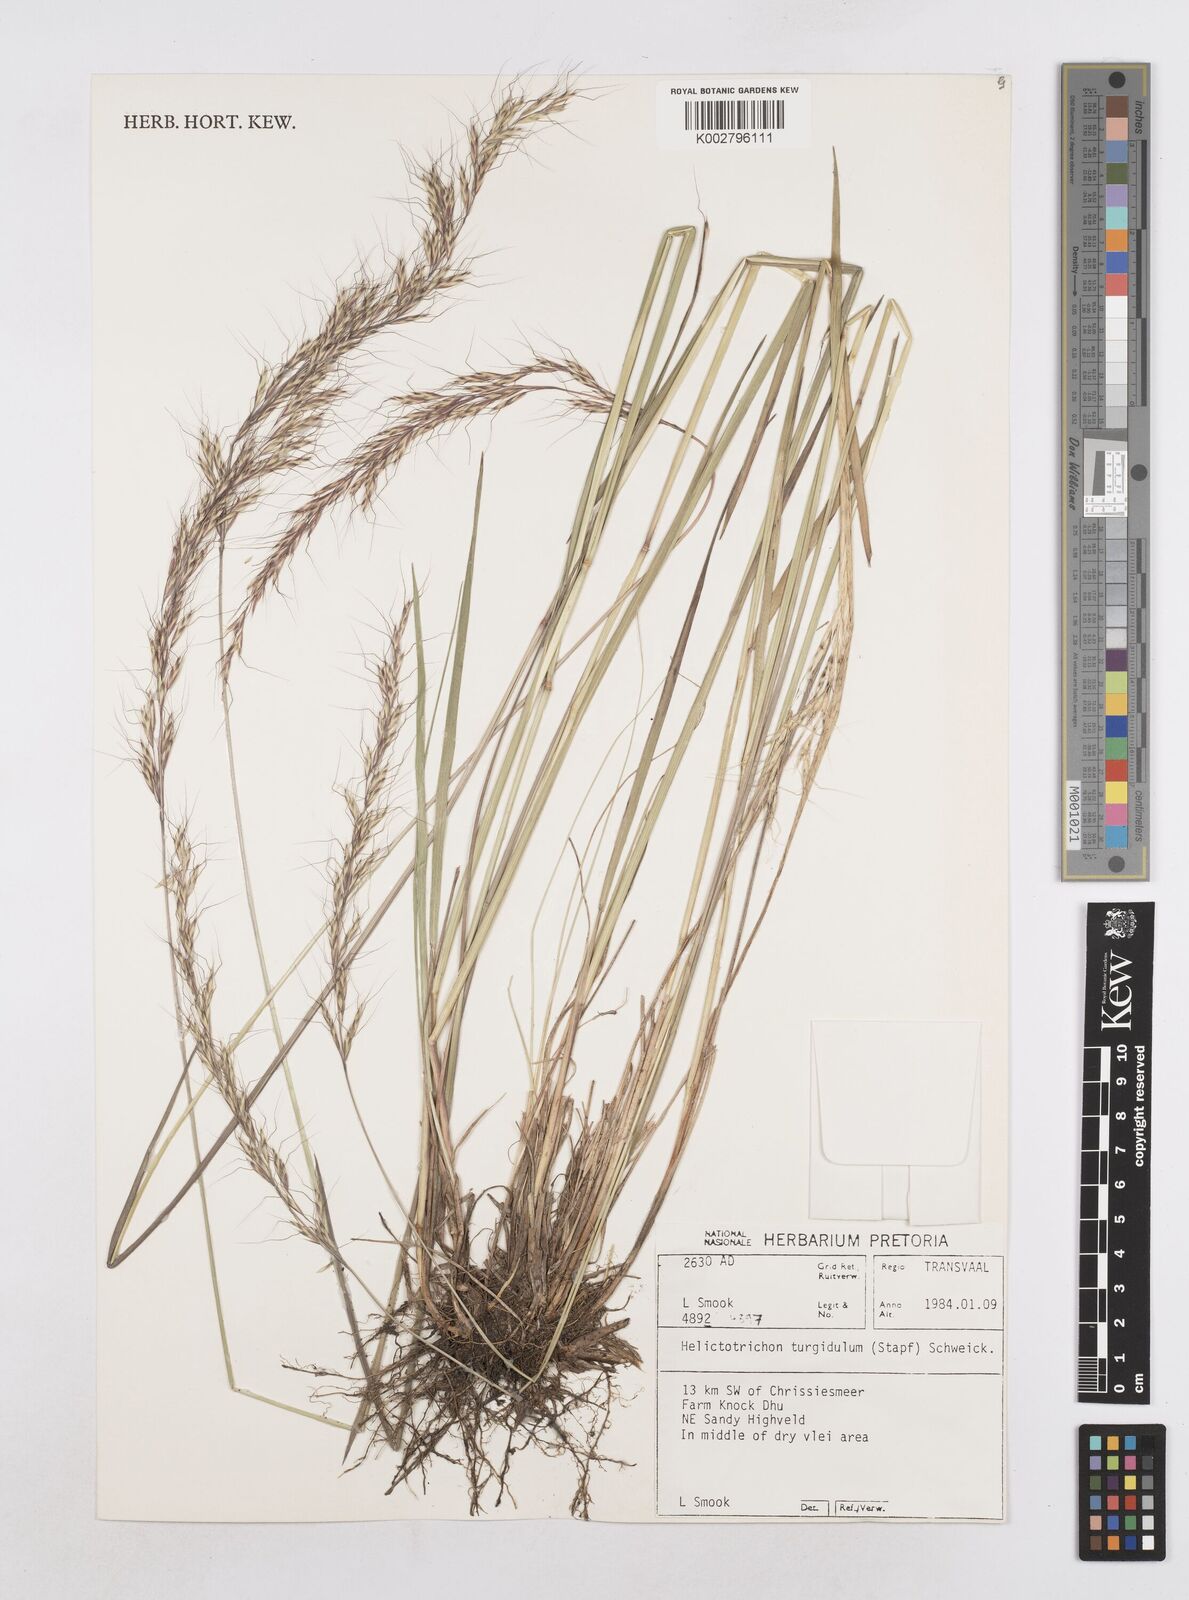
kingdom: Plantae
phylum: Tracheophyta
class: Liliopsida
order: Poales
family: Poaceae
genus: Trisetopsis
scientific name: Trisetopsis imberbis
